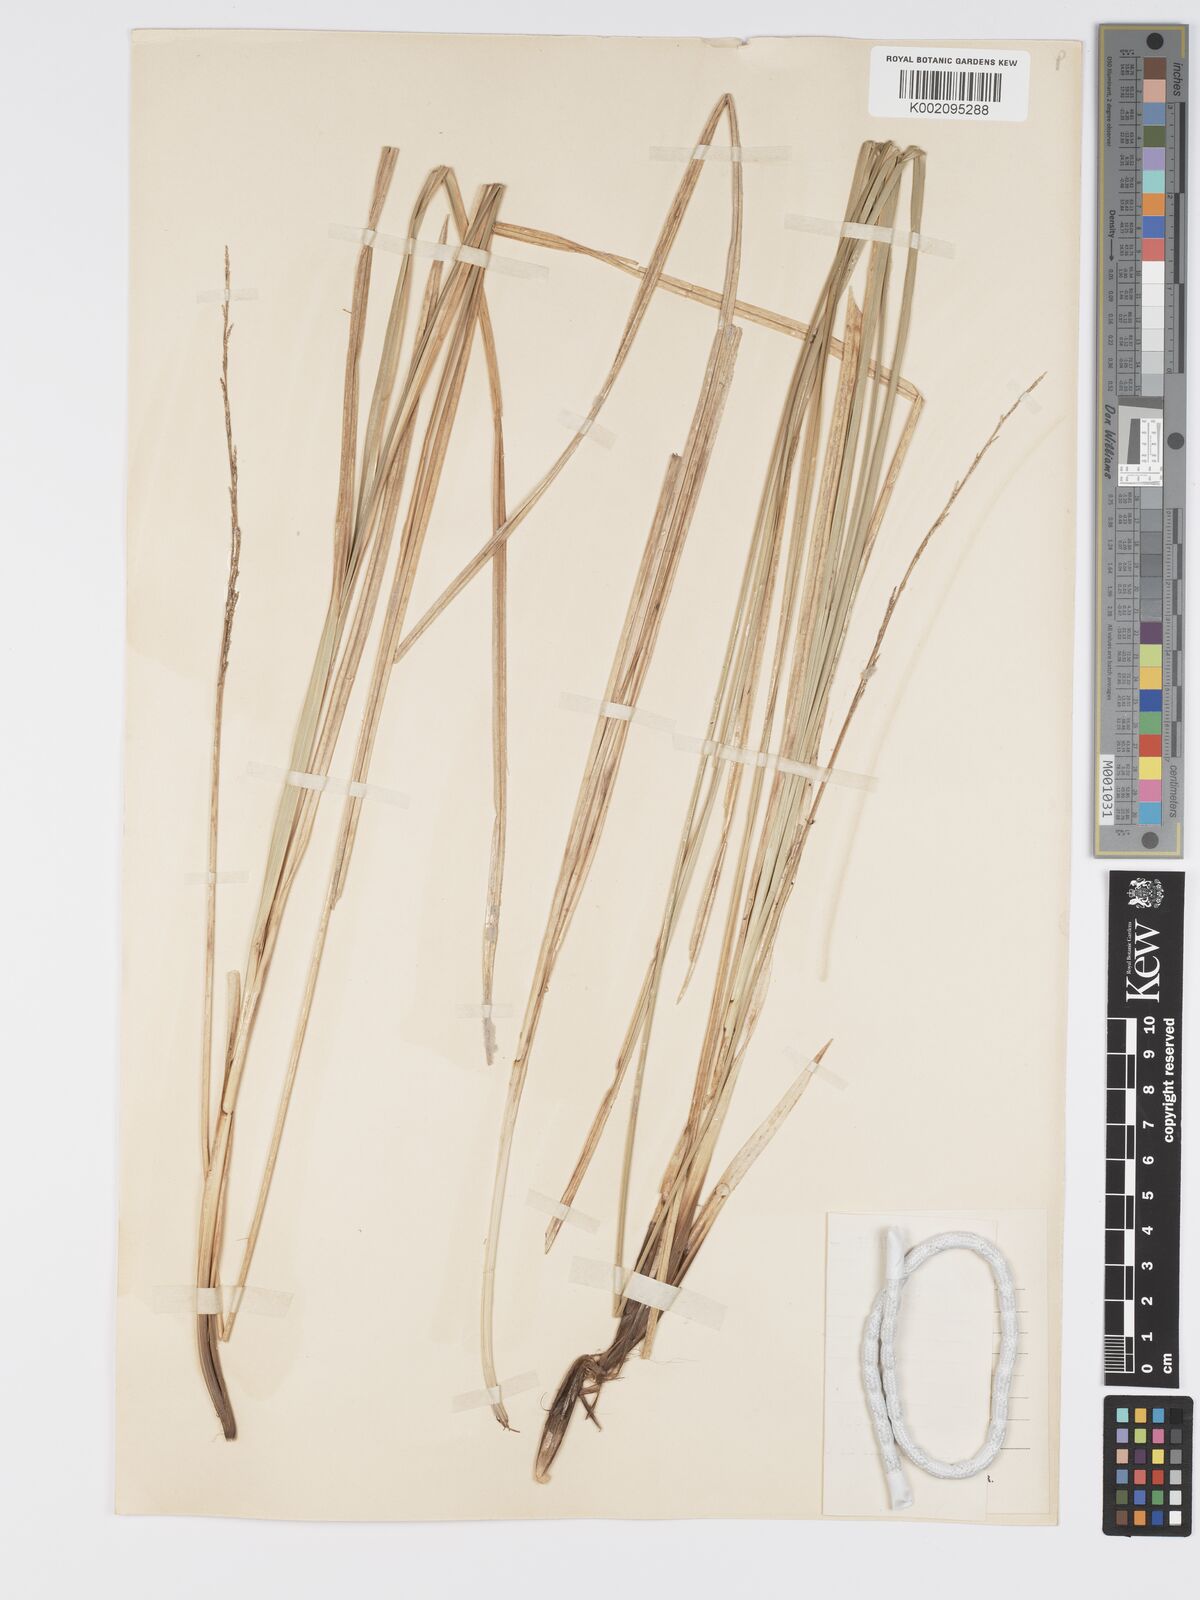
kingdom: Plantae
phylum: Tracheophyta
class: Liliopsida
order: Poales
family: Cyperaceae
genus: Carex
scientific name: Carex paniculata
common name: Greater tussock-sedge
